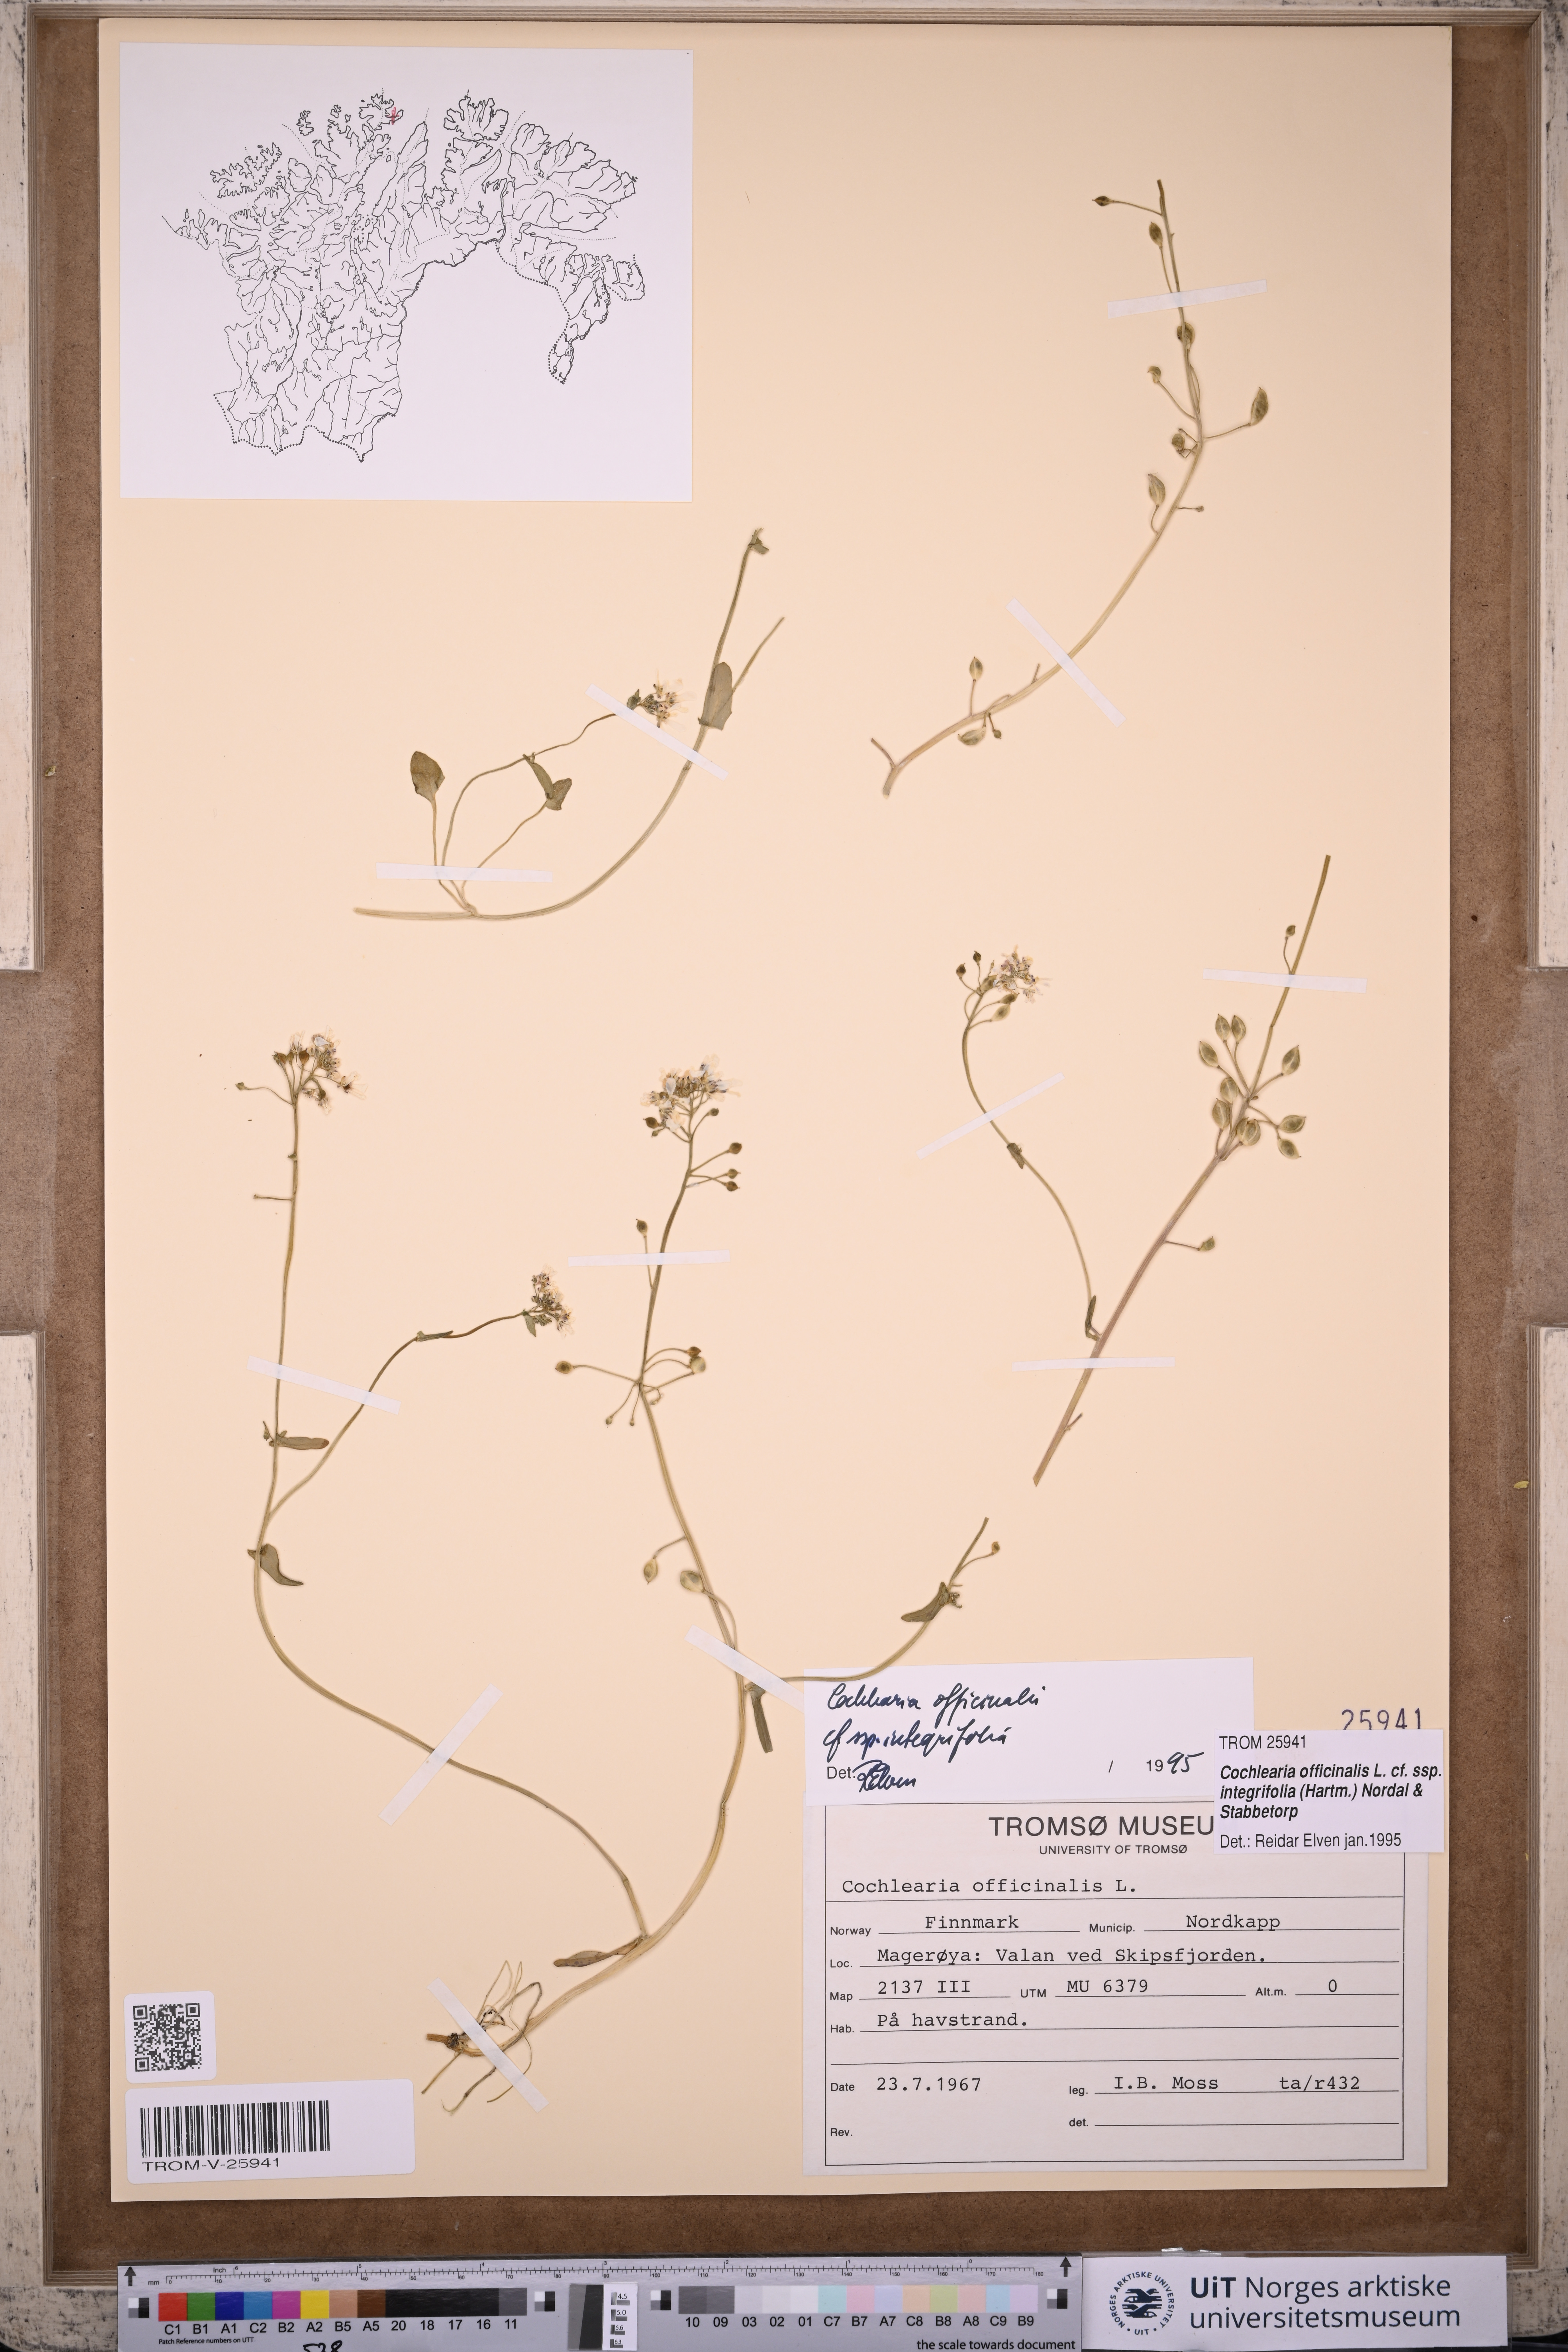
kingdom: Plantae
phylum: Tracheophyta
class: Magnoliopsida
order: Brassicales
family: Brassicaceae
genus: Cochlearia
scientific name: Cochlearia officinalis
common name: Scurvy-grass
